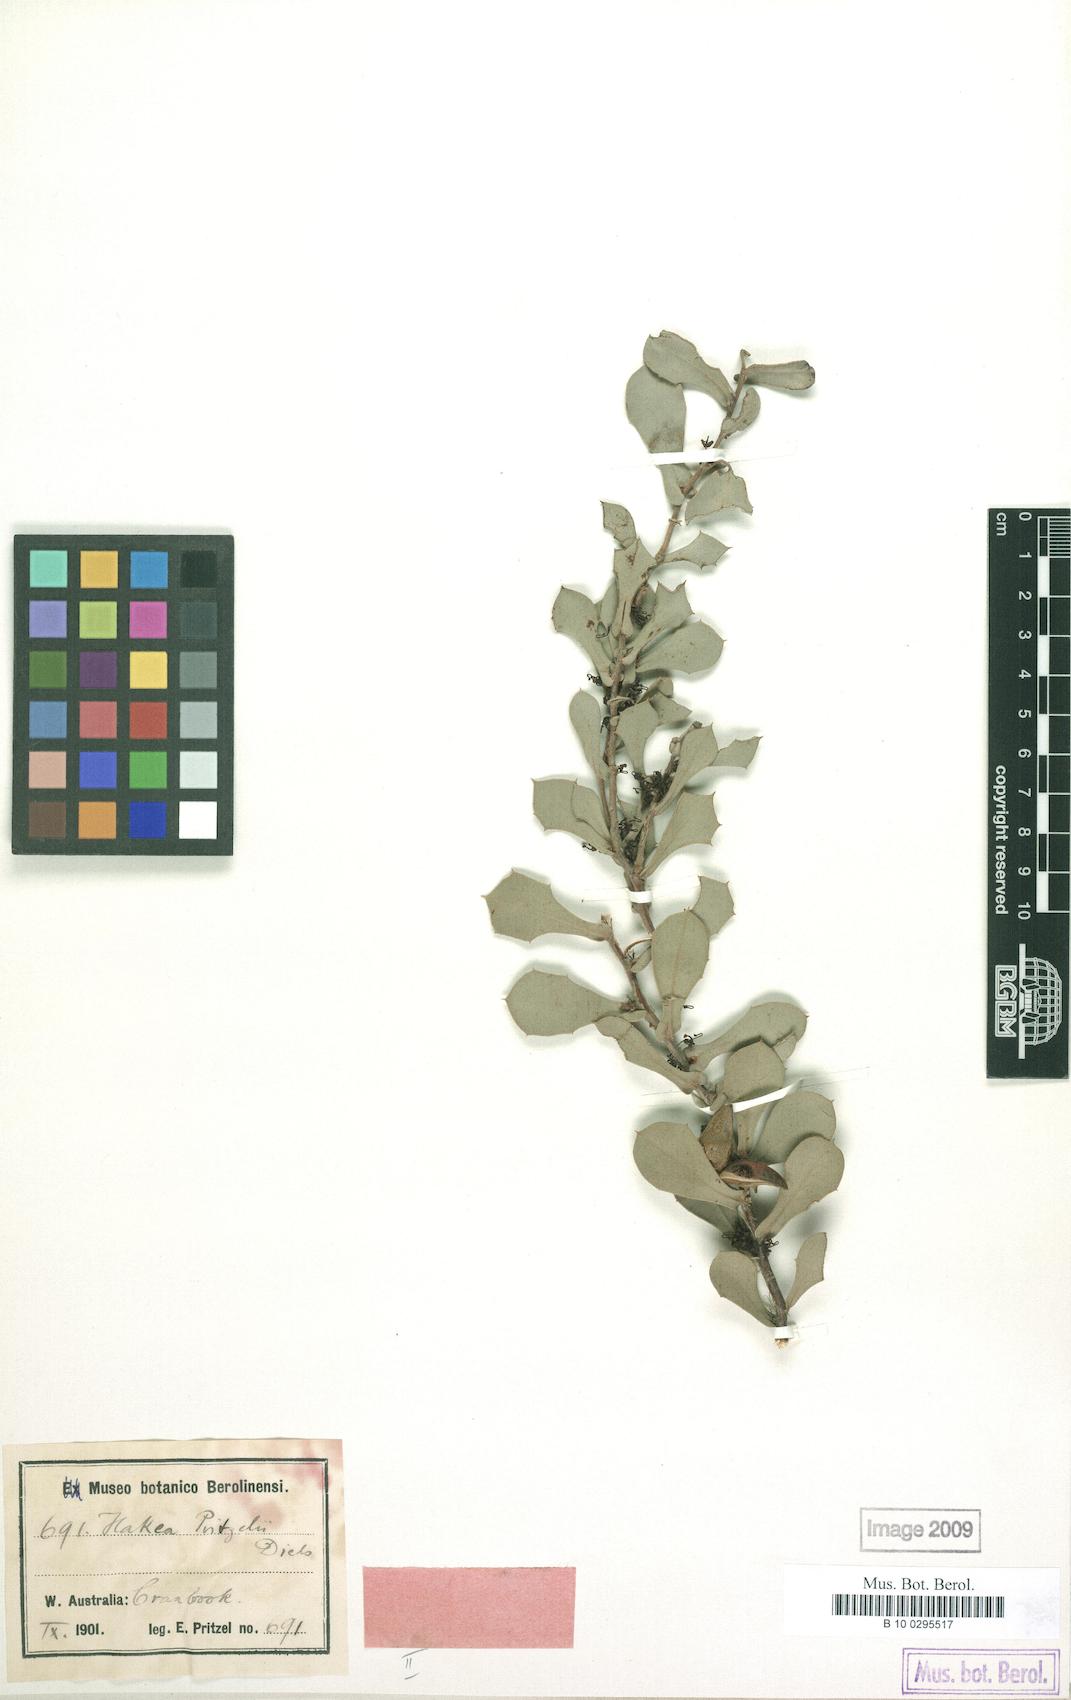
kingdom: Plantae
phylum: Tracheophyta
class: Magnoliopsida
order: Proteales
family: Proteaceae
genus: Hakea
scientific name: Hakea pritzelii
